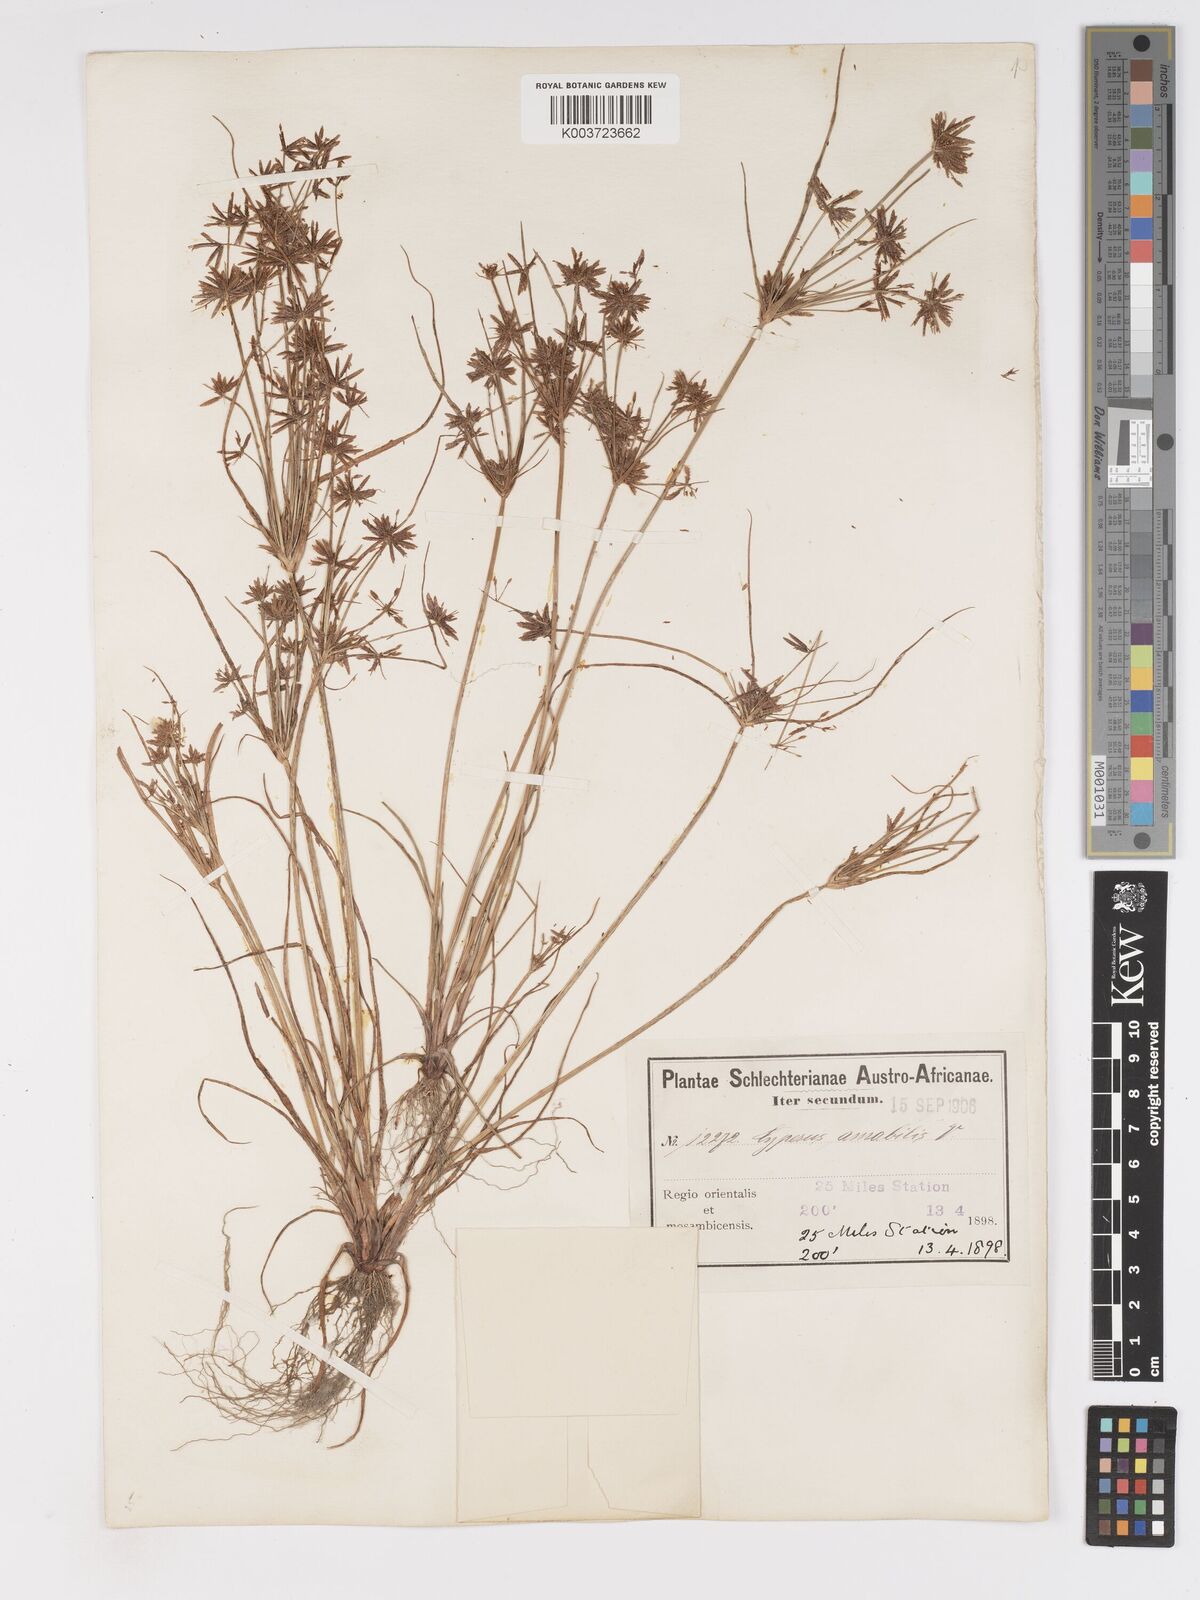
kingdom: Plantae
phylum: Tracheophyta
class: Liliopsida
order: Poales
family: Cyperaceae
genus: Cyperus
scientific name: Cyperus amabilis
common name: Foothill flat sedge
